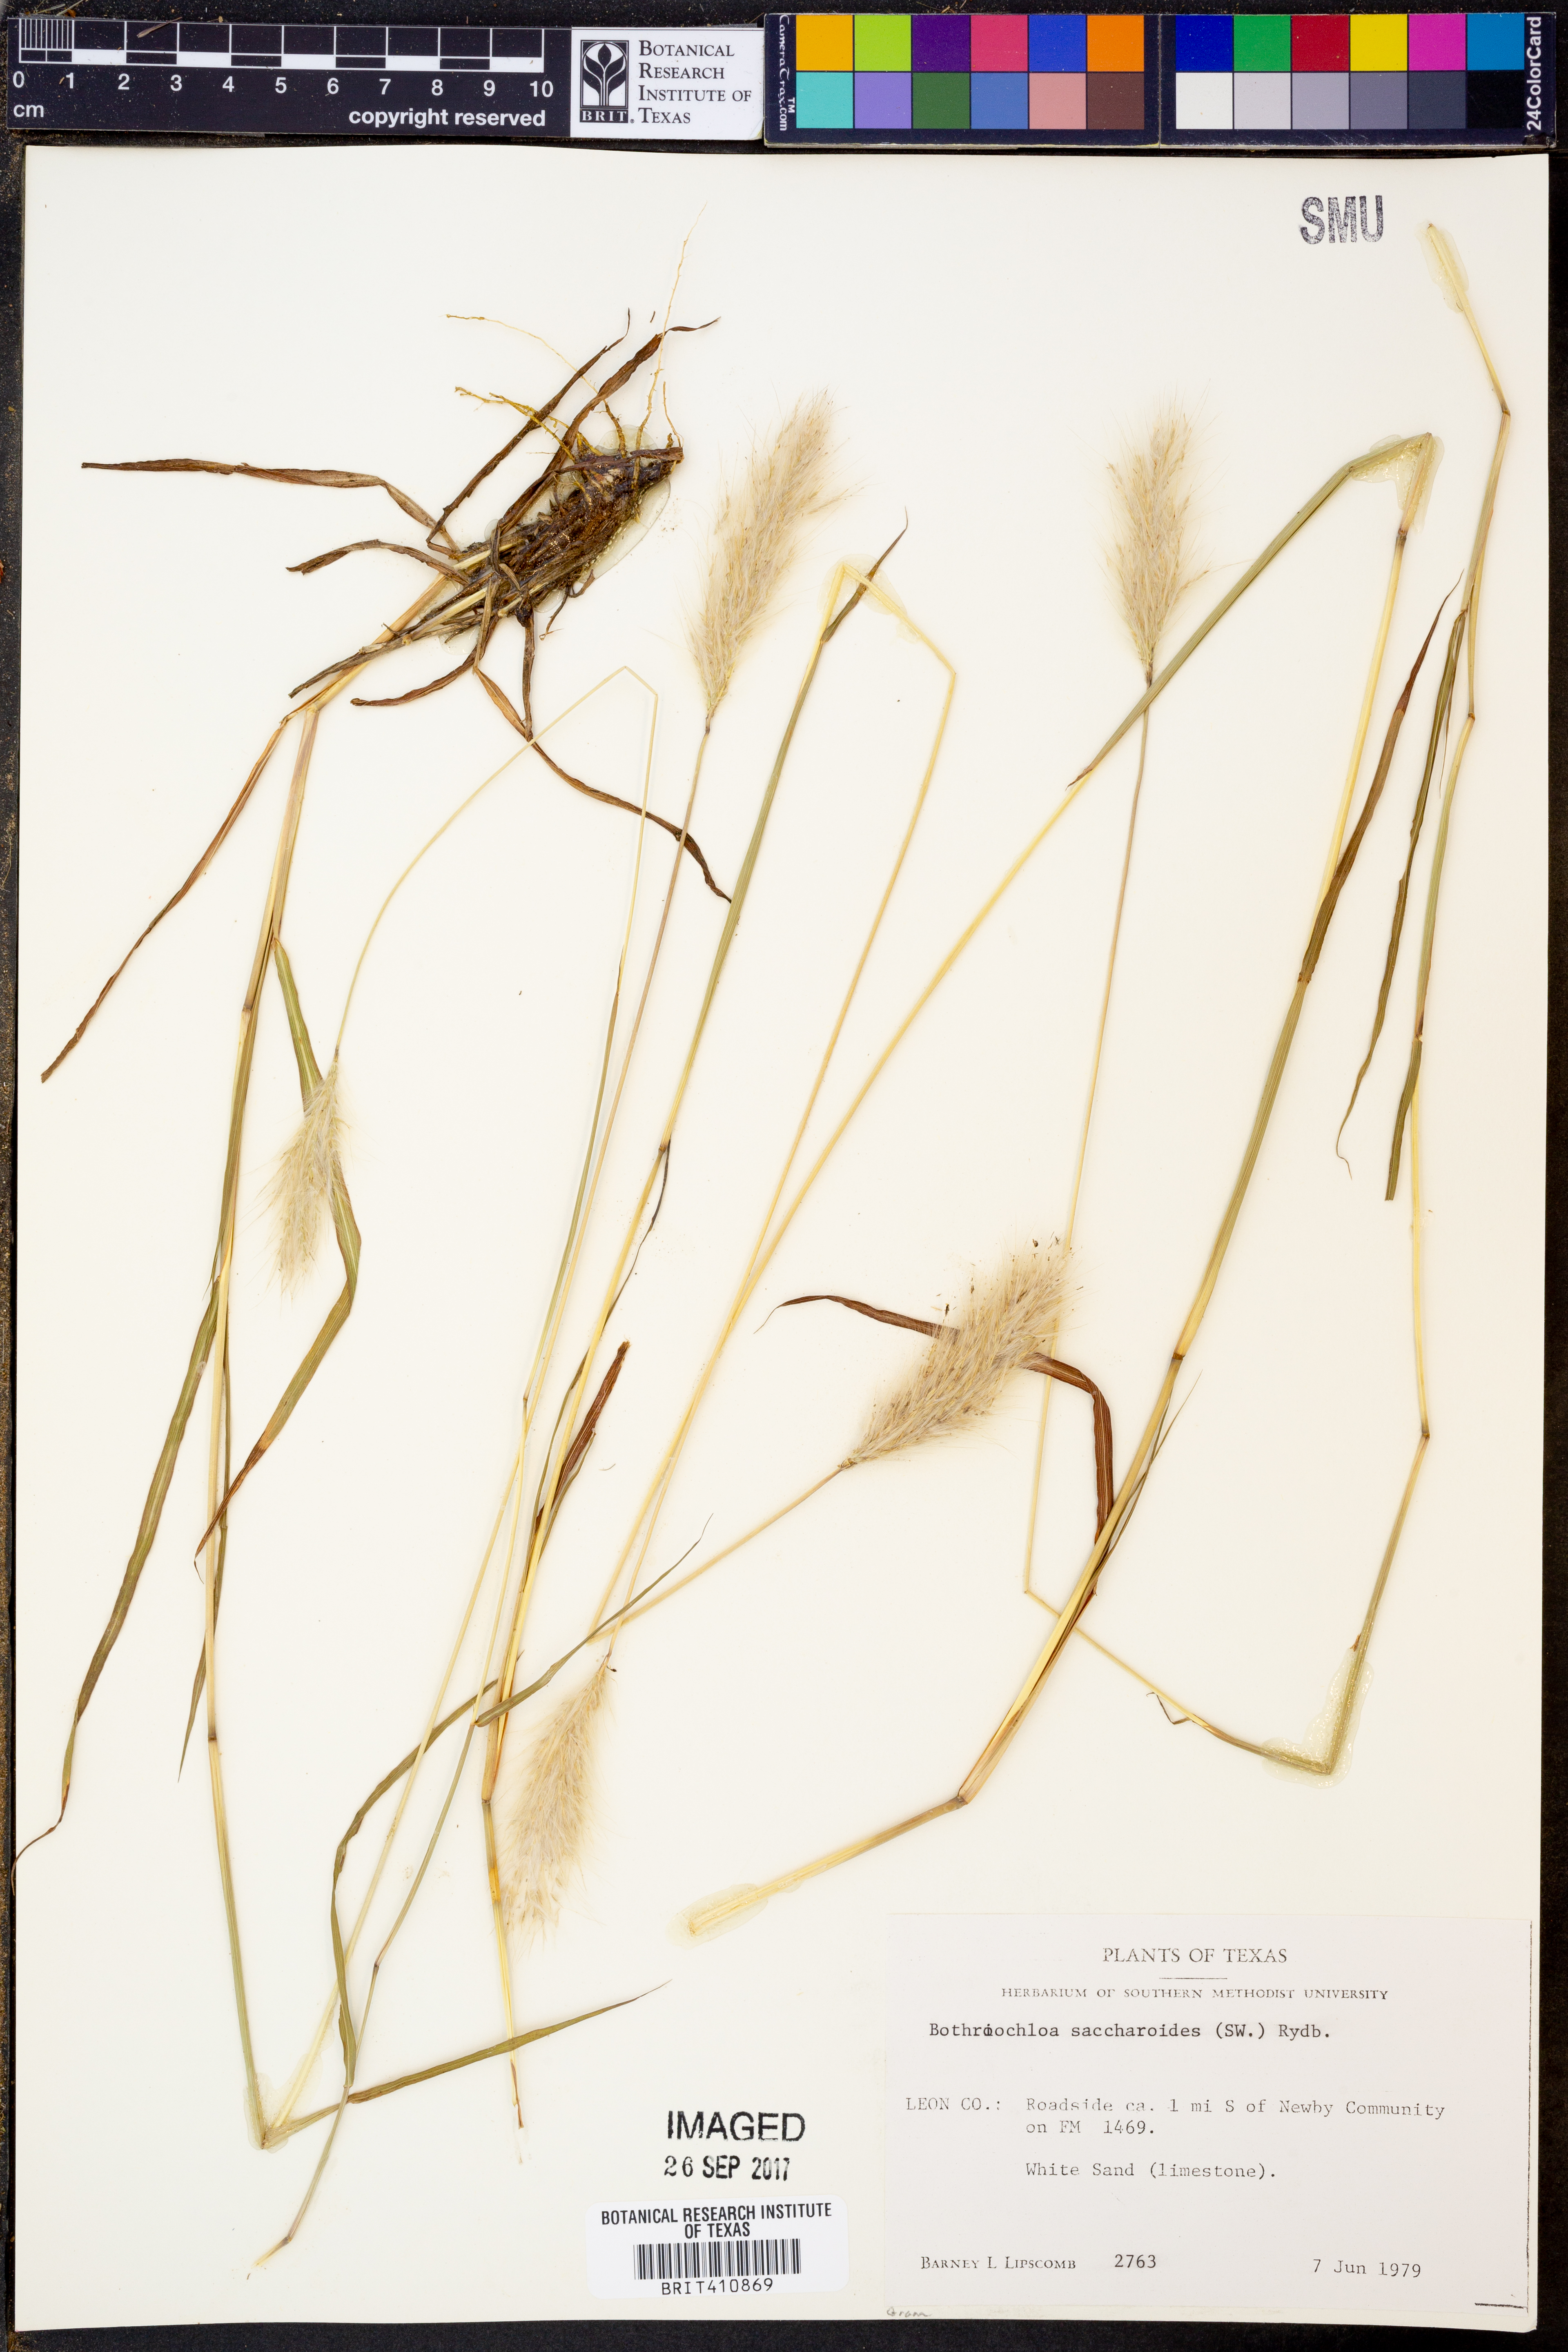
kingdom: Plantae
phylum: Tracheophyta
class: Liliopsida
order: Poales
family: Poaceae
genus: Bothriochloa
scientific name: Bothriochloa saccharoides
